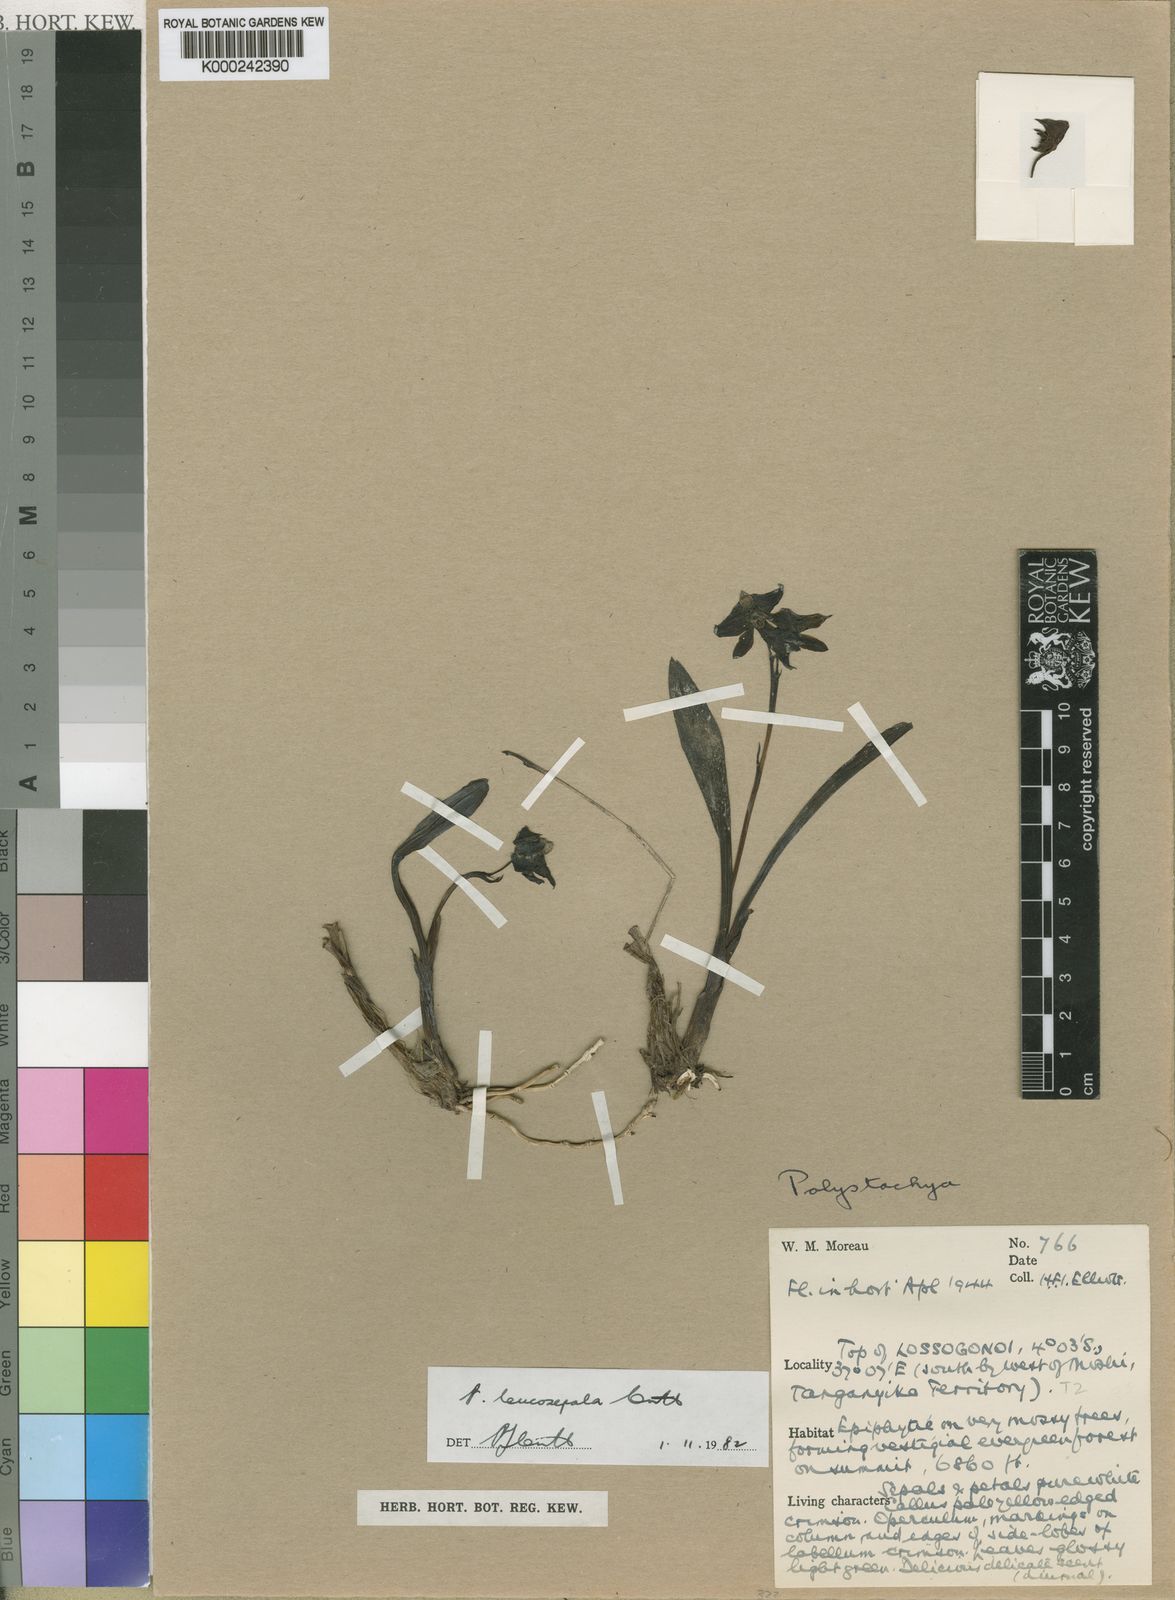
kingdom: Plantae
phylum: Tracheophyta
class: Liliopsida
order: Asparagales
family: Orchidaceae
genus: Polystachya
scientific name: Polystachya leucosepala
